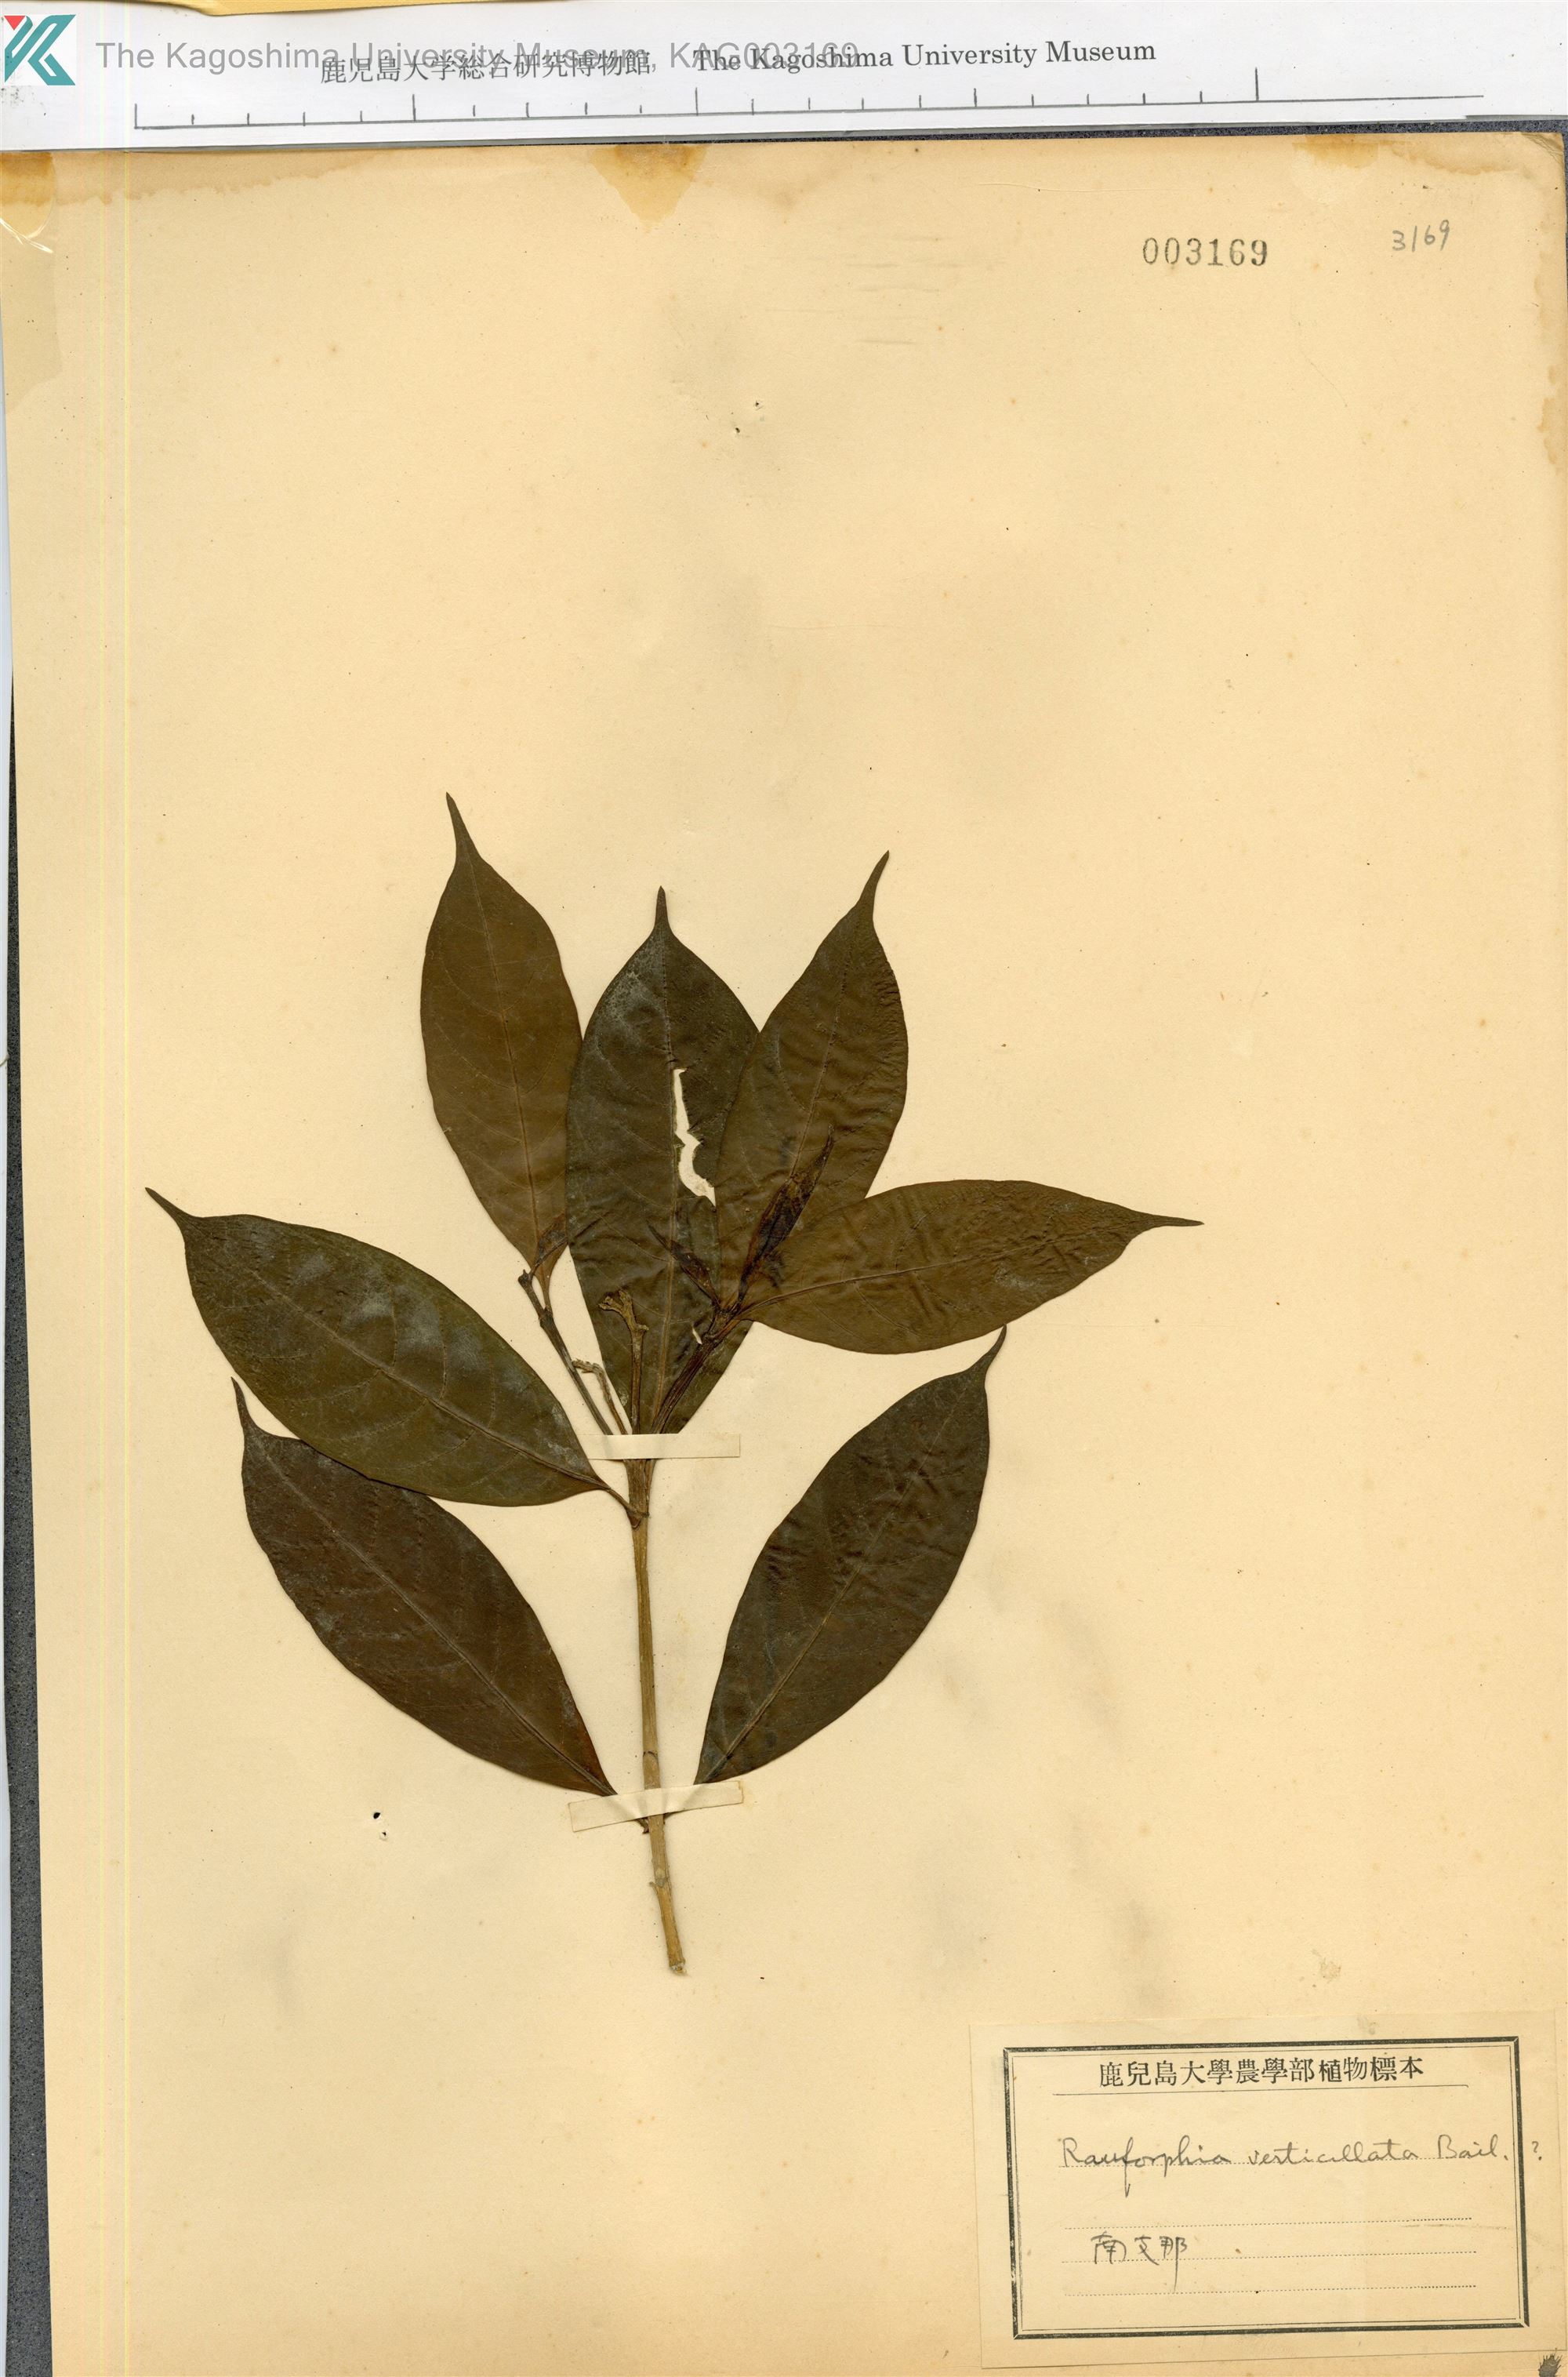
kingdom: Plantae
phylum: Tracheophyta
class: Magnoliopsida
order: Gentianales
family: Apocynaceae
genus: Rauvolfia
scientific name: Rauvolfia verticillata
